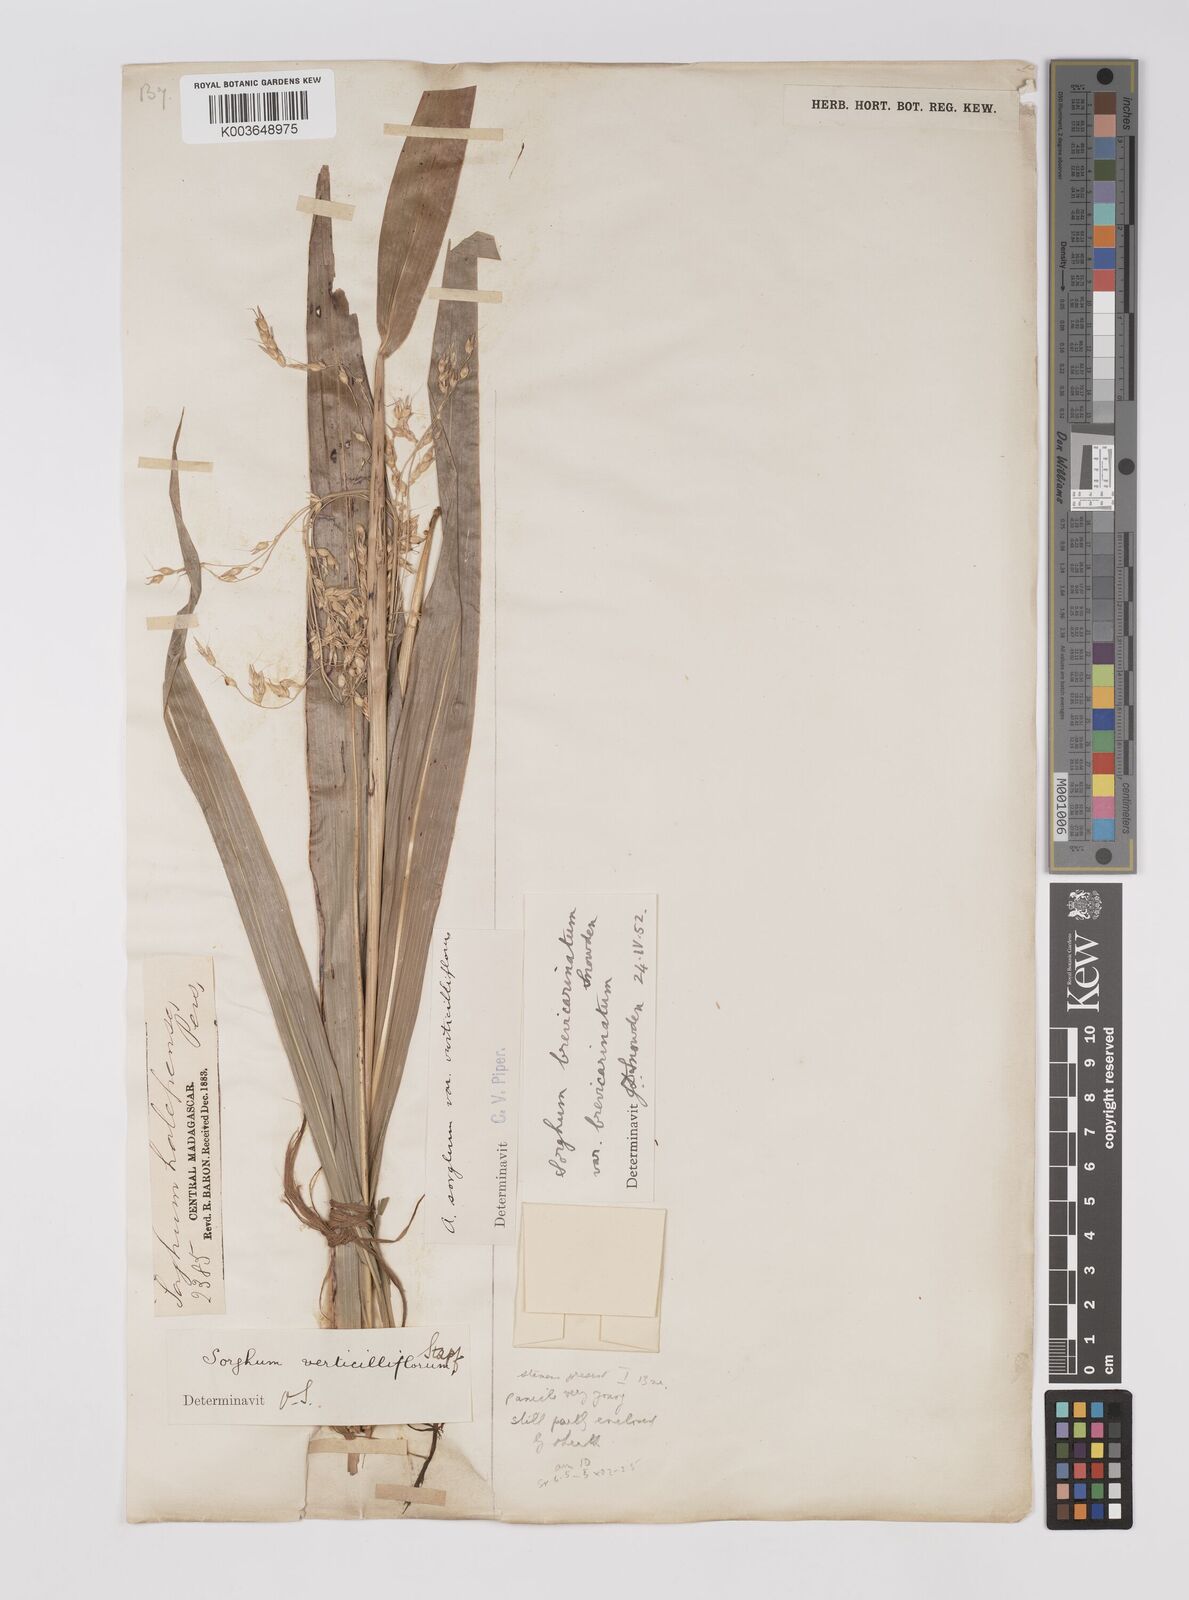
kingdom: Plantae
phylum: Tracheophyta
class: Liliopsida
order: Poales
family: Poaceae
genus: Sorghum
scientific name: Sorghum arundinaceum
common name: Sorghum
